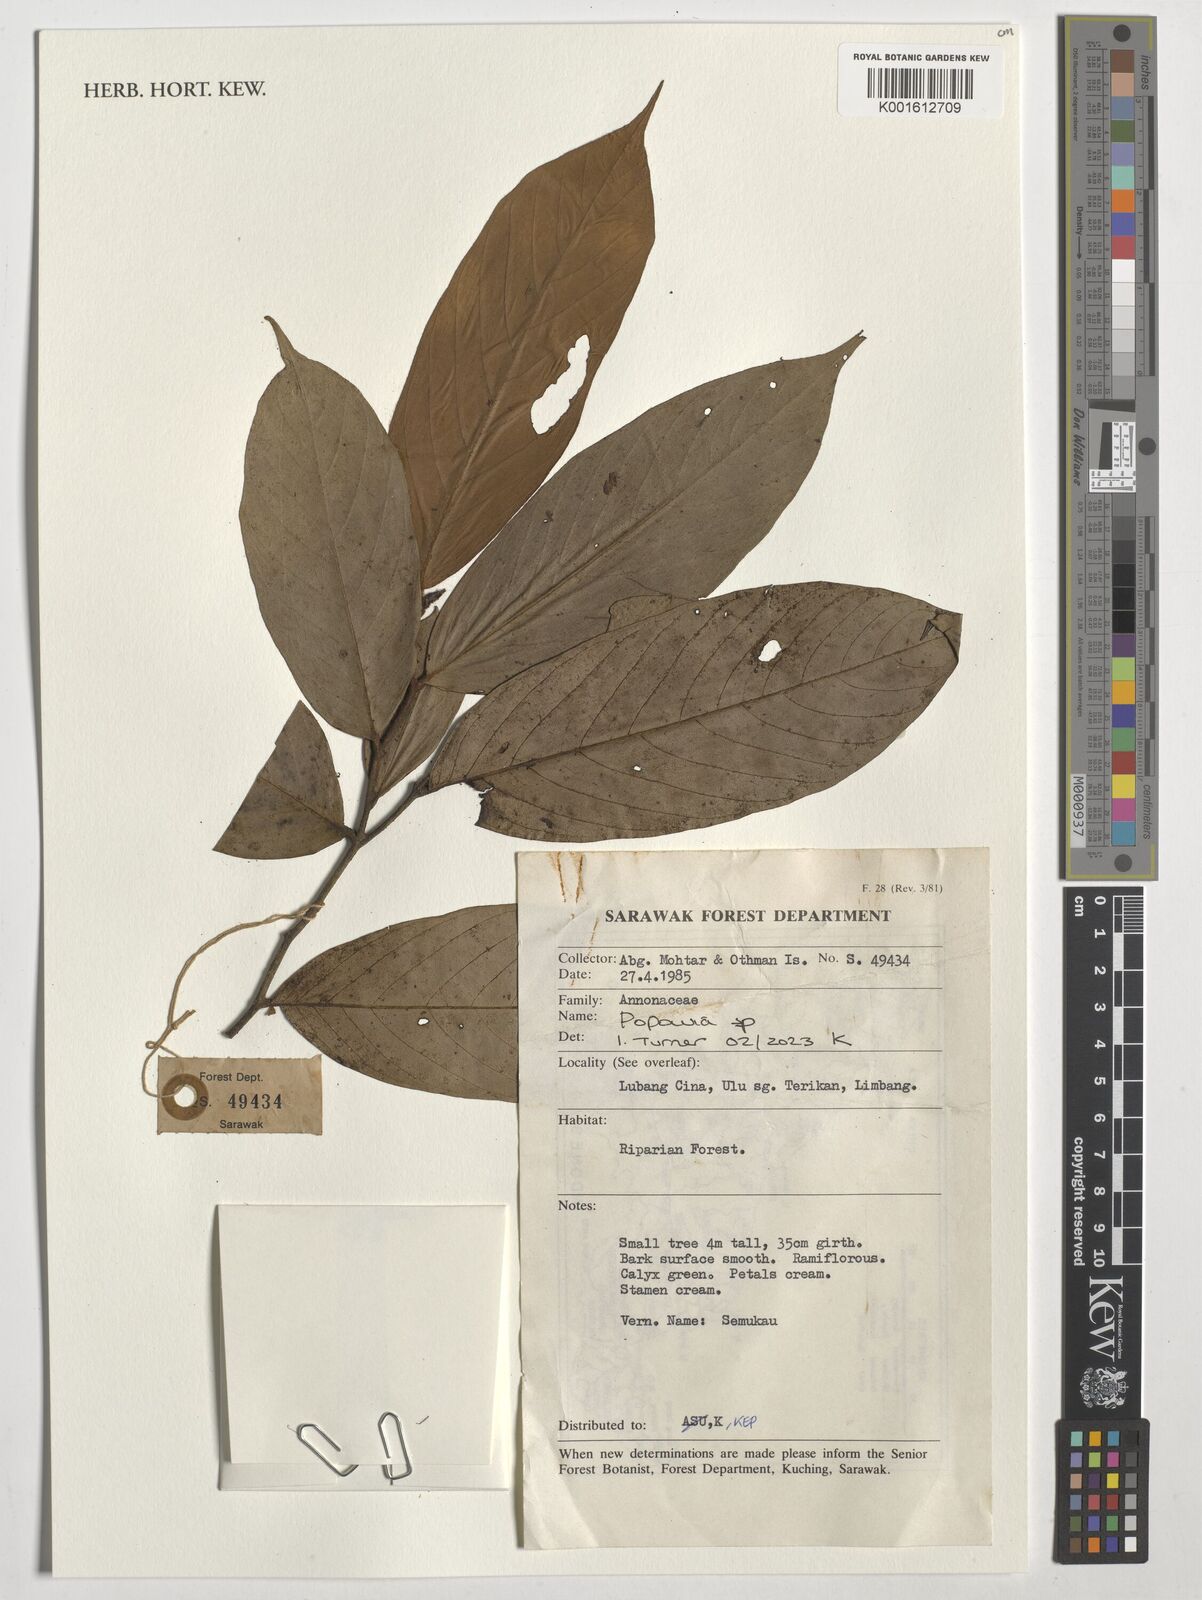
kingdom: Plantae
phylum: Tracheophyta
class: Magnoliopsida
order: Magnoliales
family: Annonaceae
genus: Popowia
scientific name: Popowia
